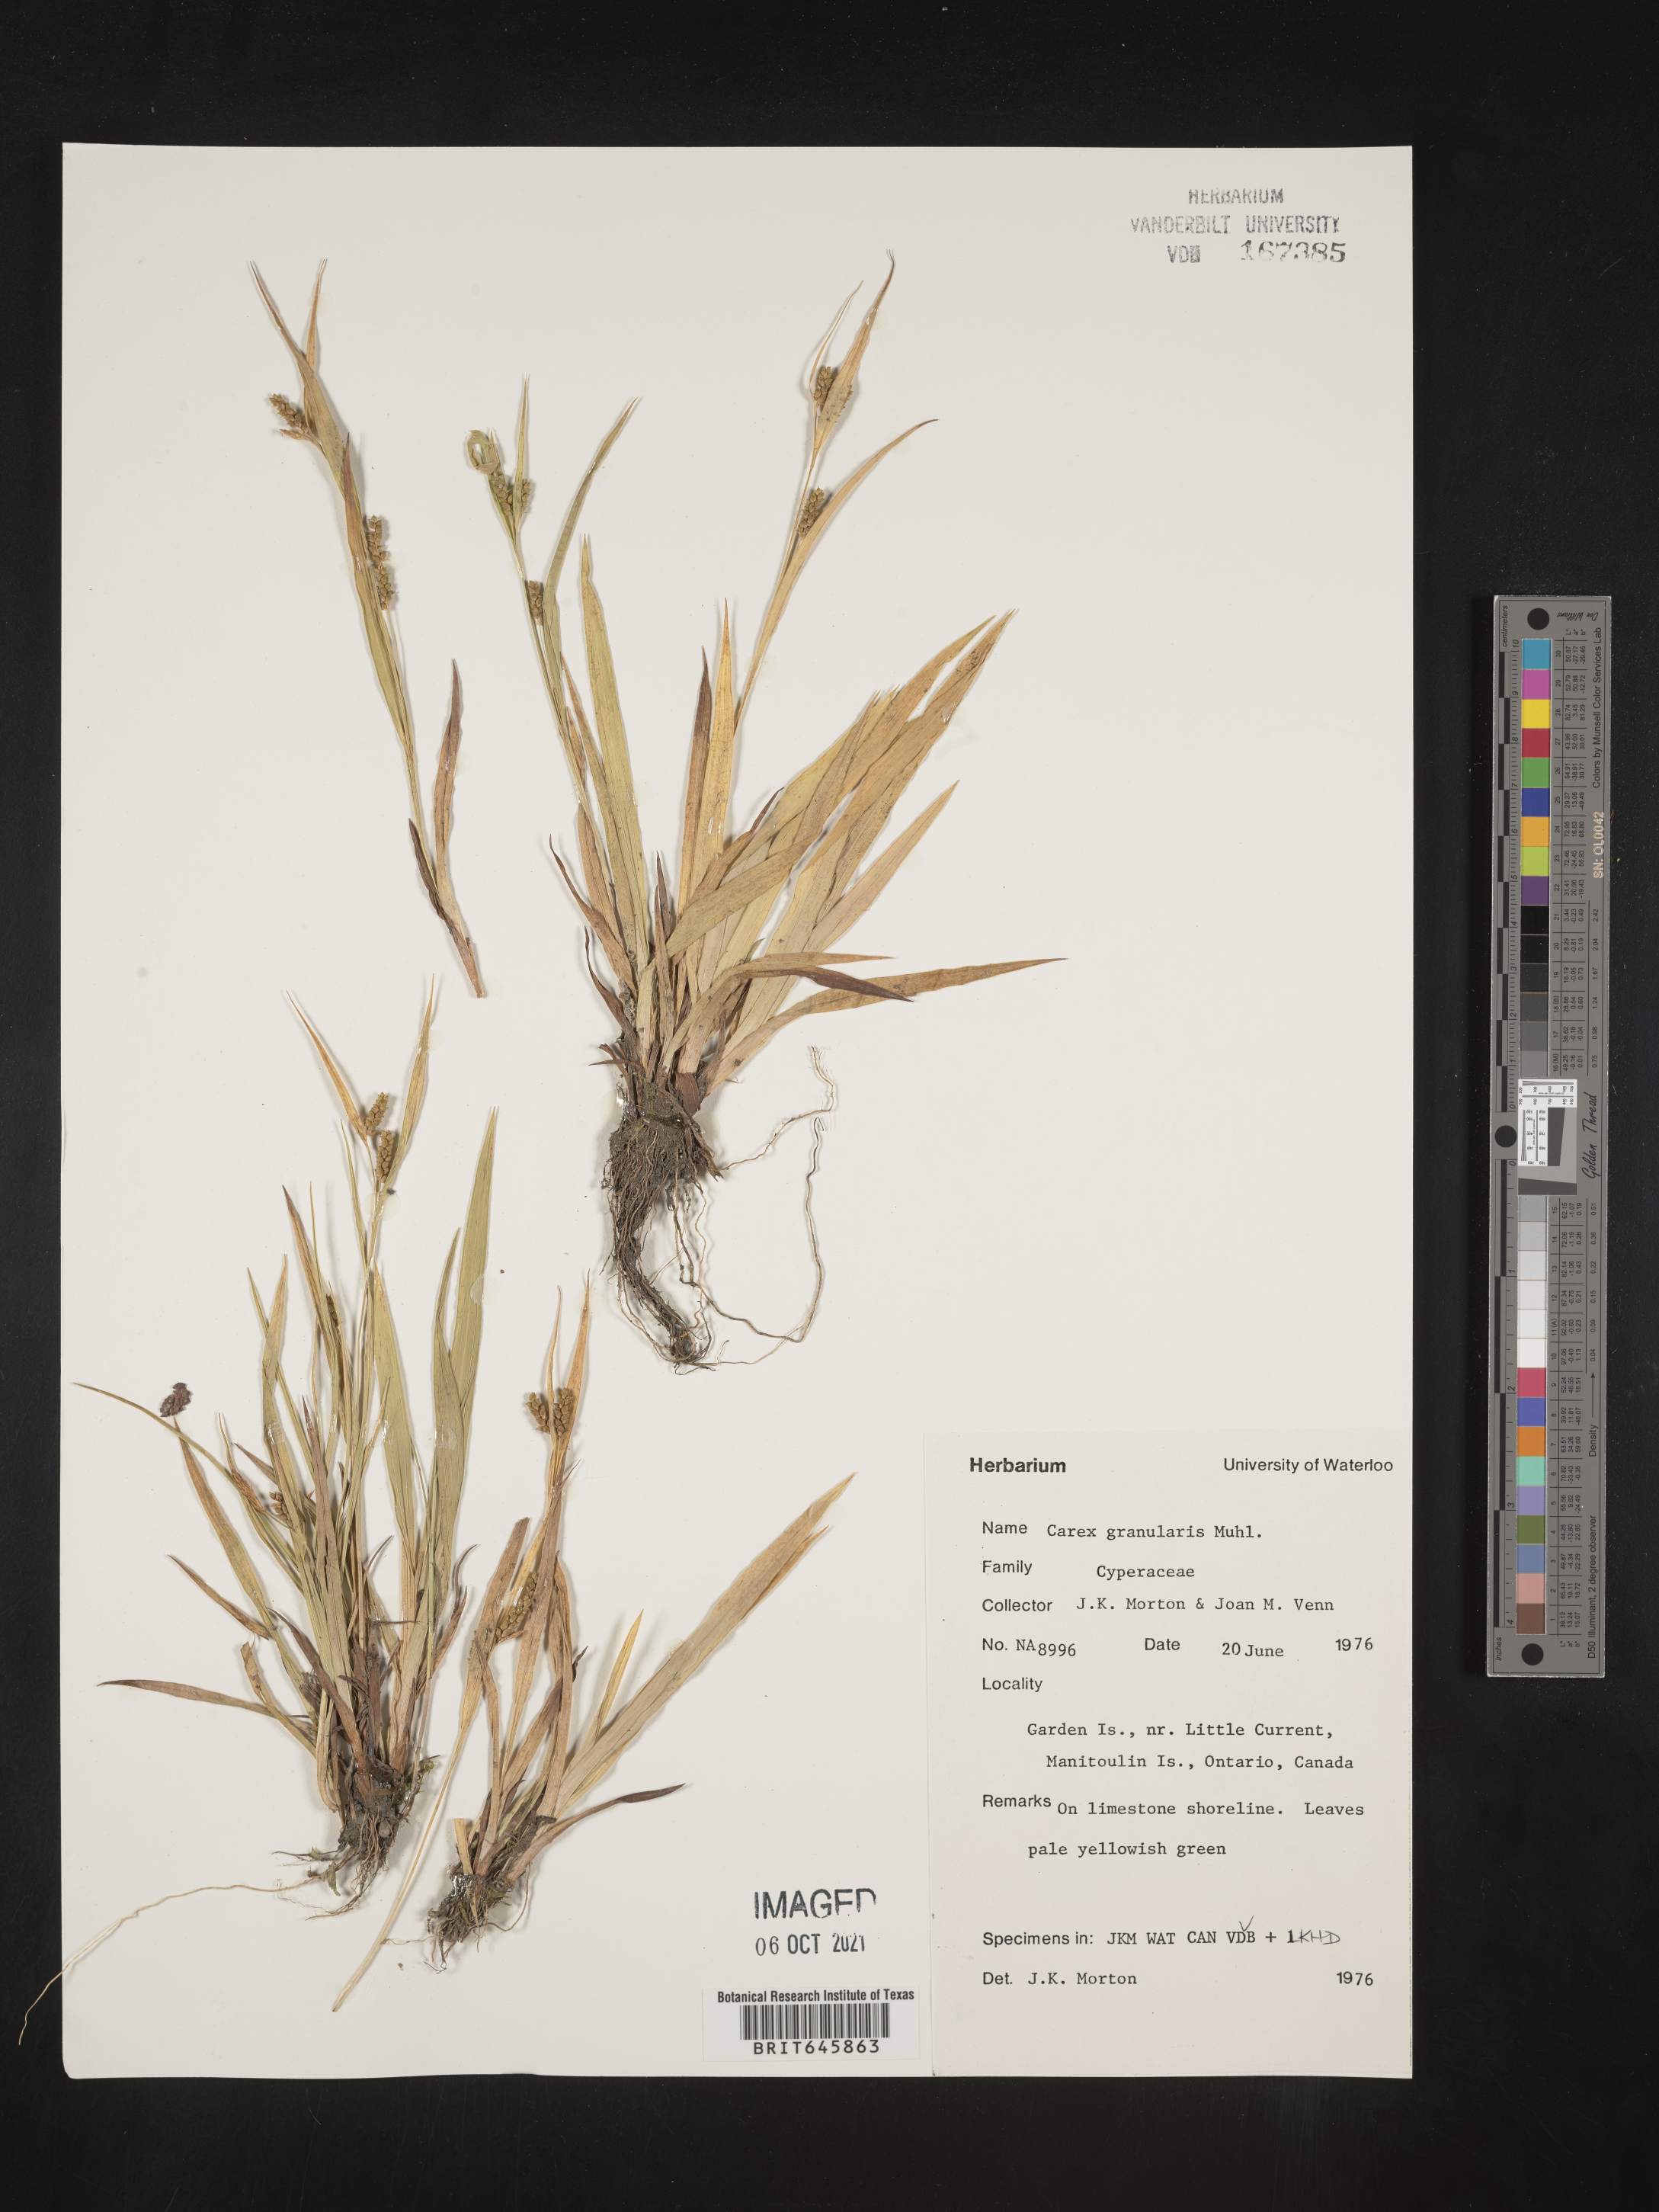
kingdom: Plantae
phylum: Tracheophyta
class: Liliopsida
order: Poales
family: Cyperaceae
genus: Carex
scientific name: Carex granularis
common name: Granular sedge
